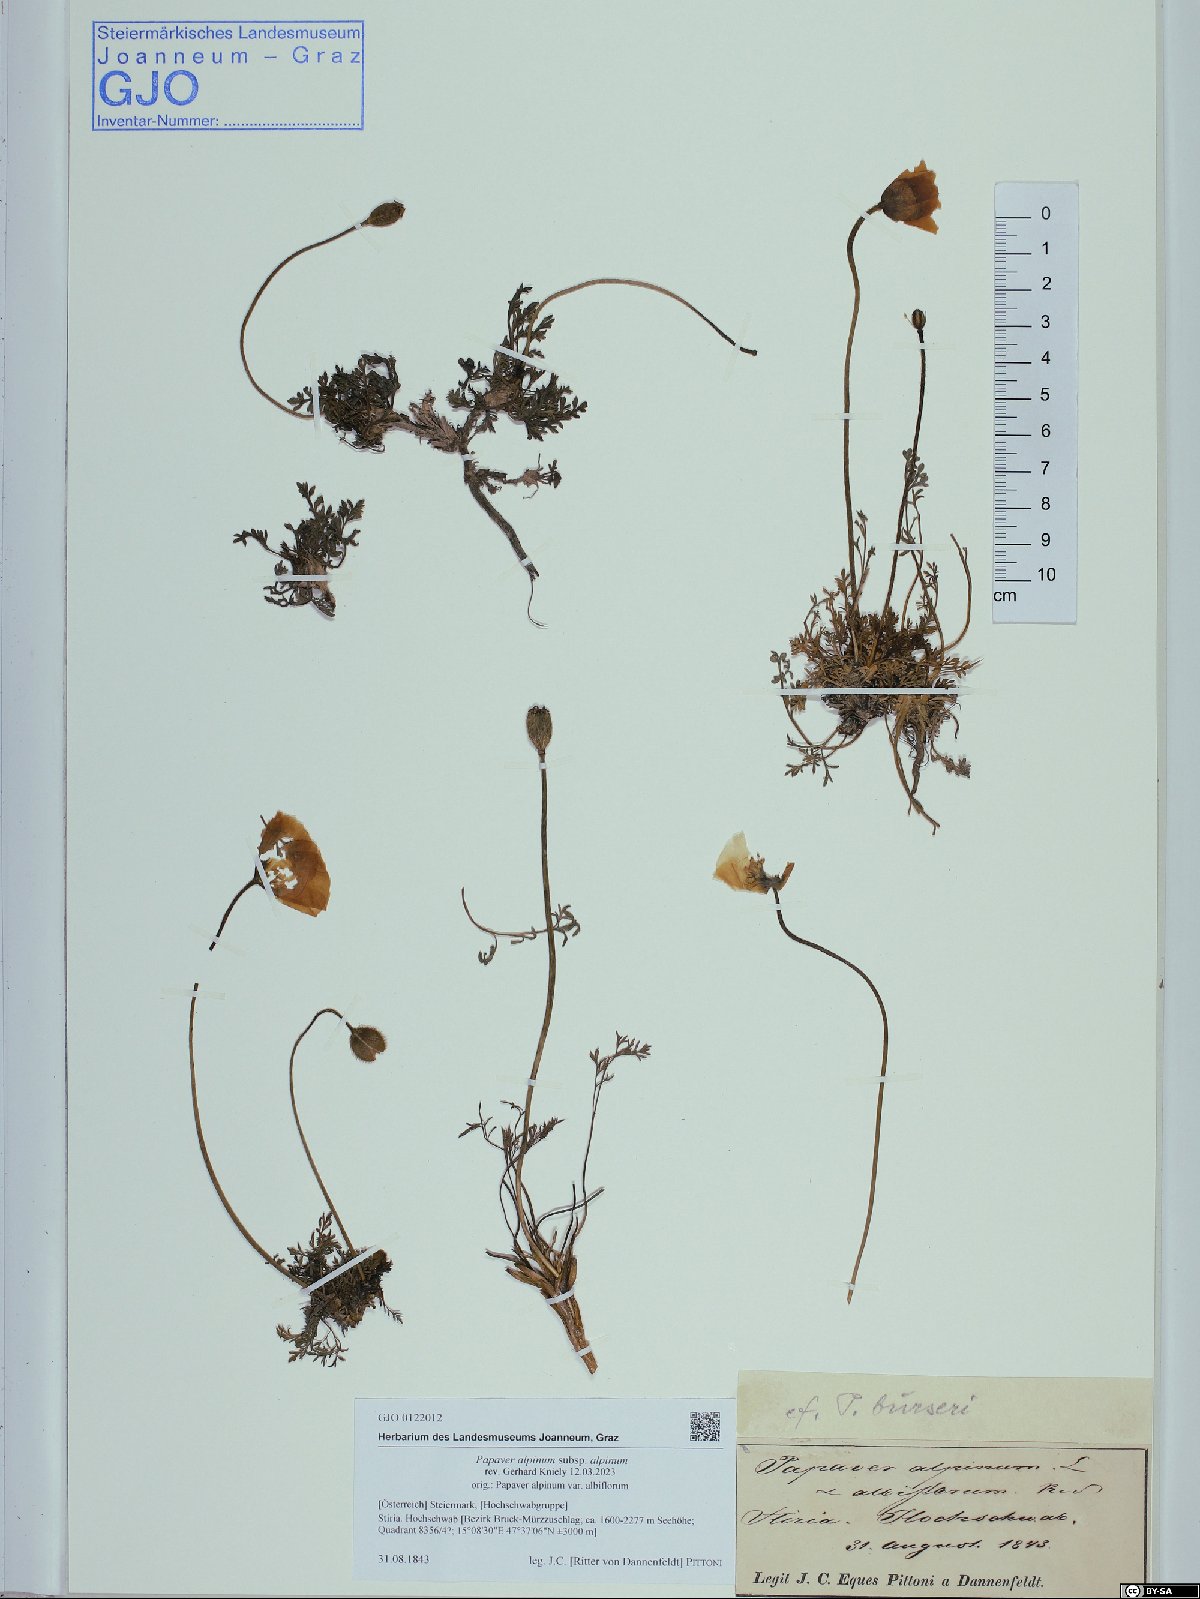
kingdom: Plantae
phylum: Tracheophyta
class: Magnoliopsida
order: Ranunculales
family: Papaveraceae
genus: Papaver
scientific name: Papaver alpinum
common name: Austrian poppy
